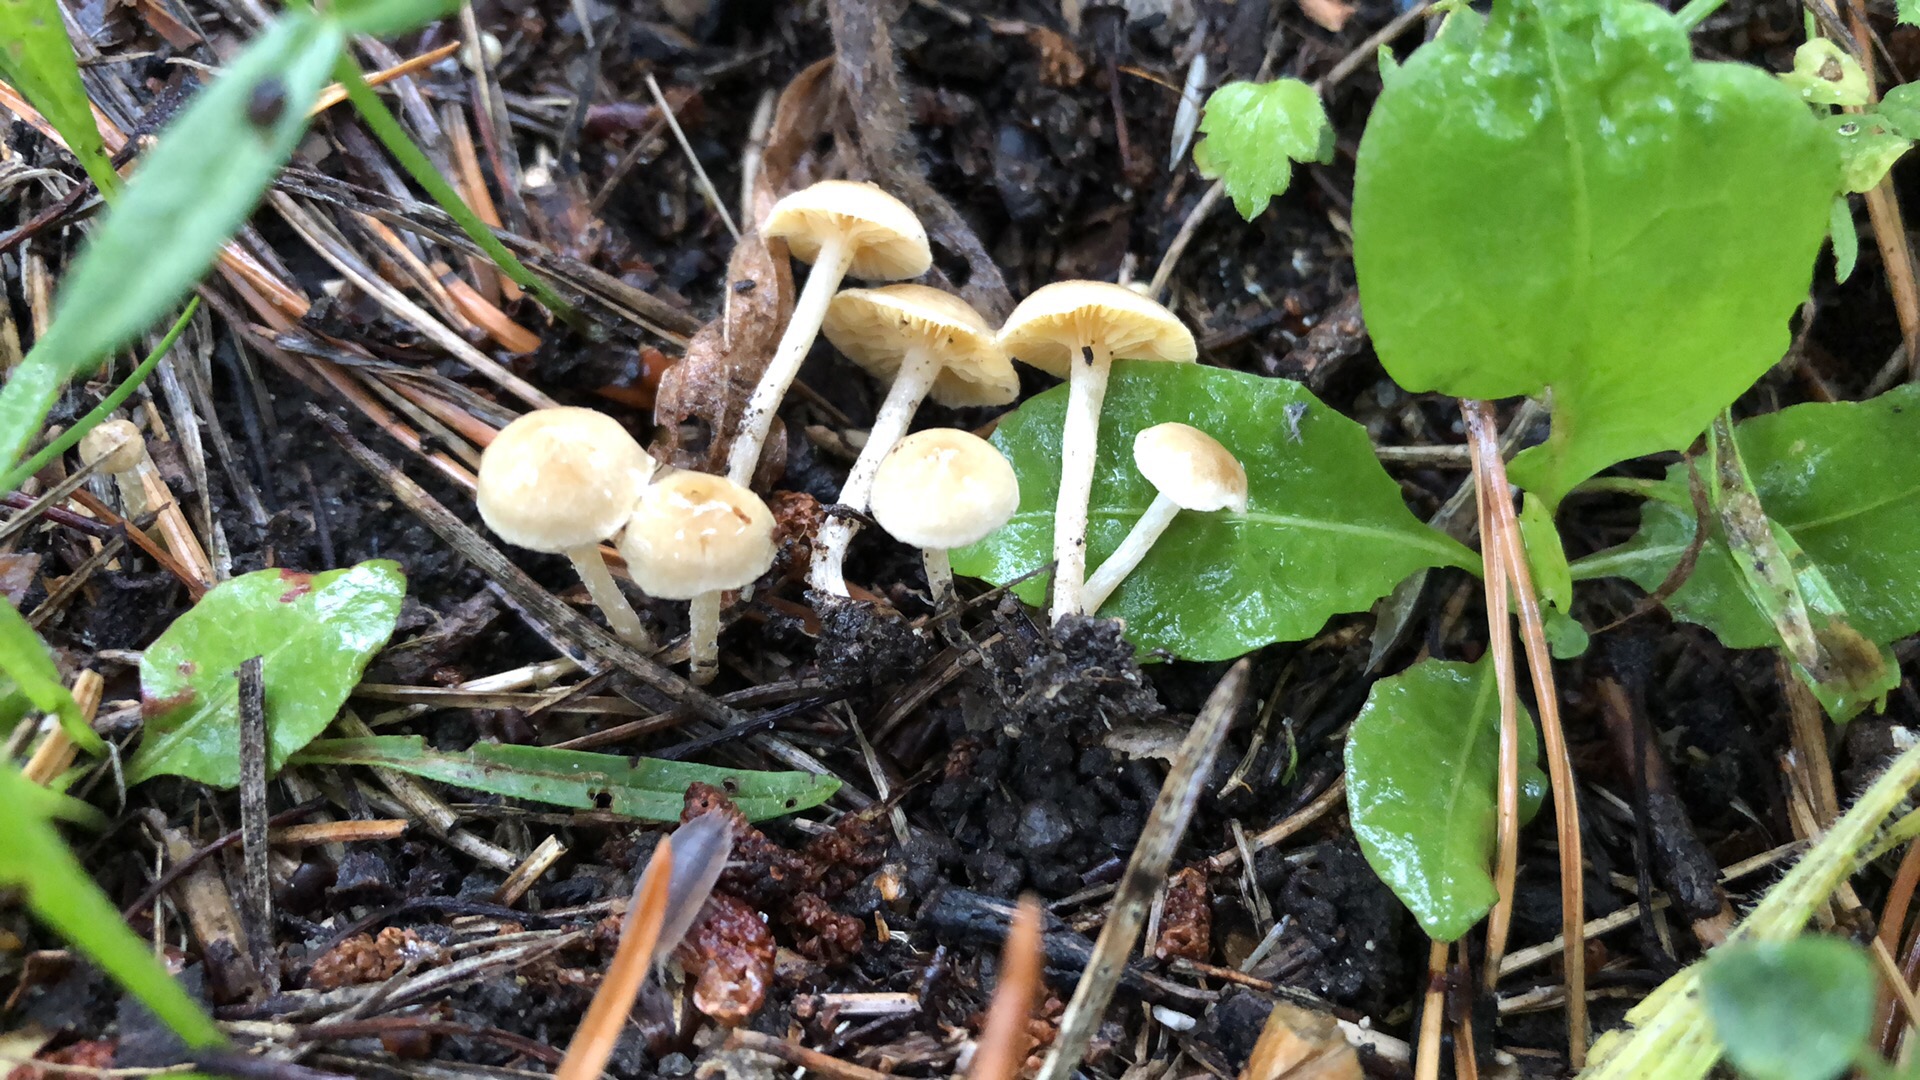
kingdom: Fungi
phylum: Basidiomycota
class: Agaricomycetes
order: Agaricales
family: Tubariaceae
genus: Tubaria
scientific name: Tubaria dispersa
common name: tjørne-fnughat
